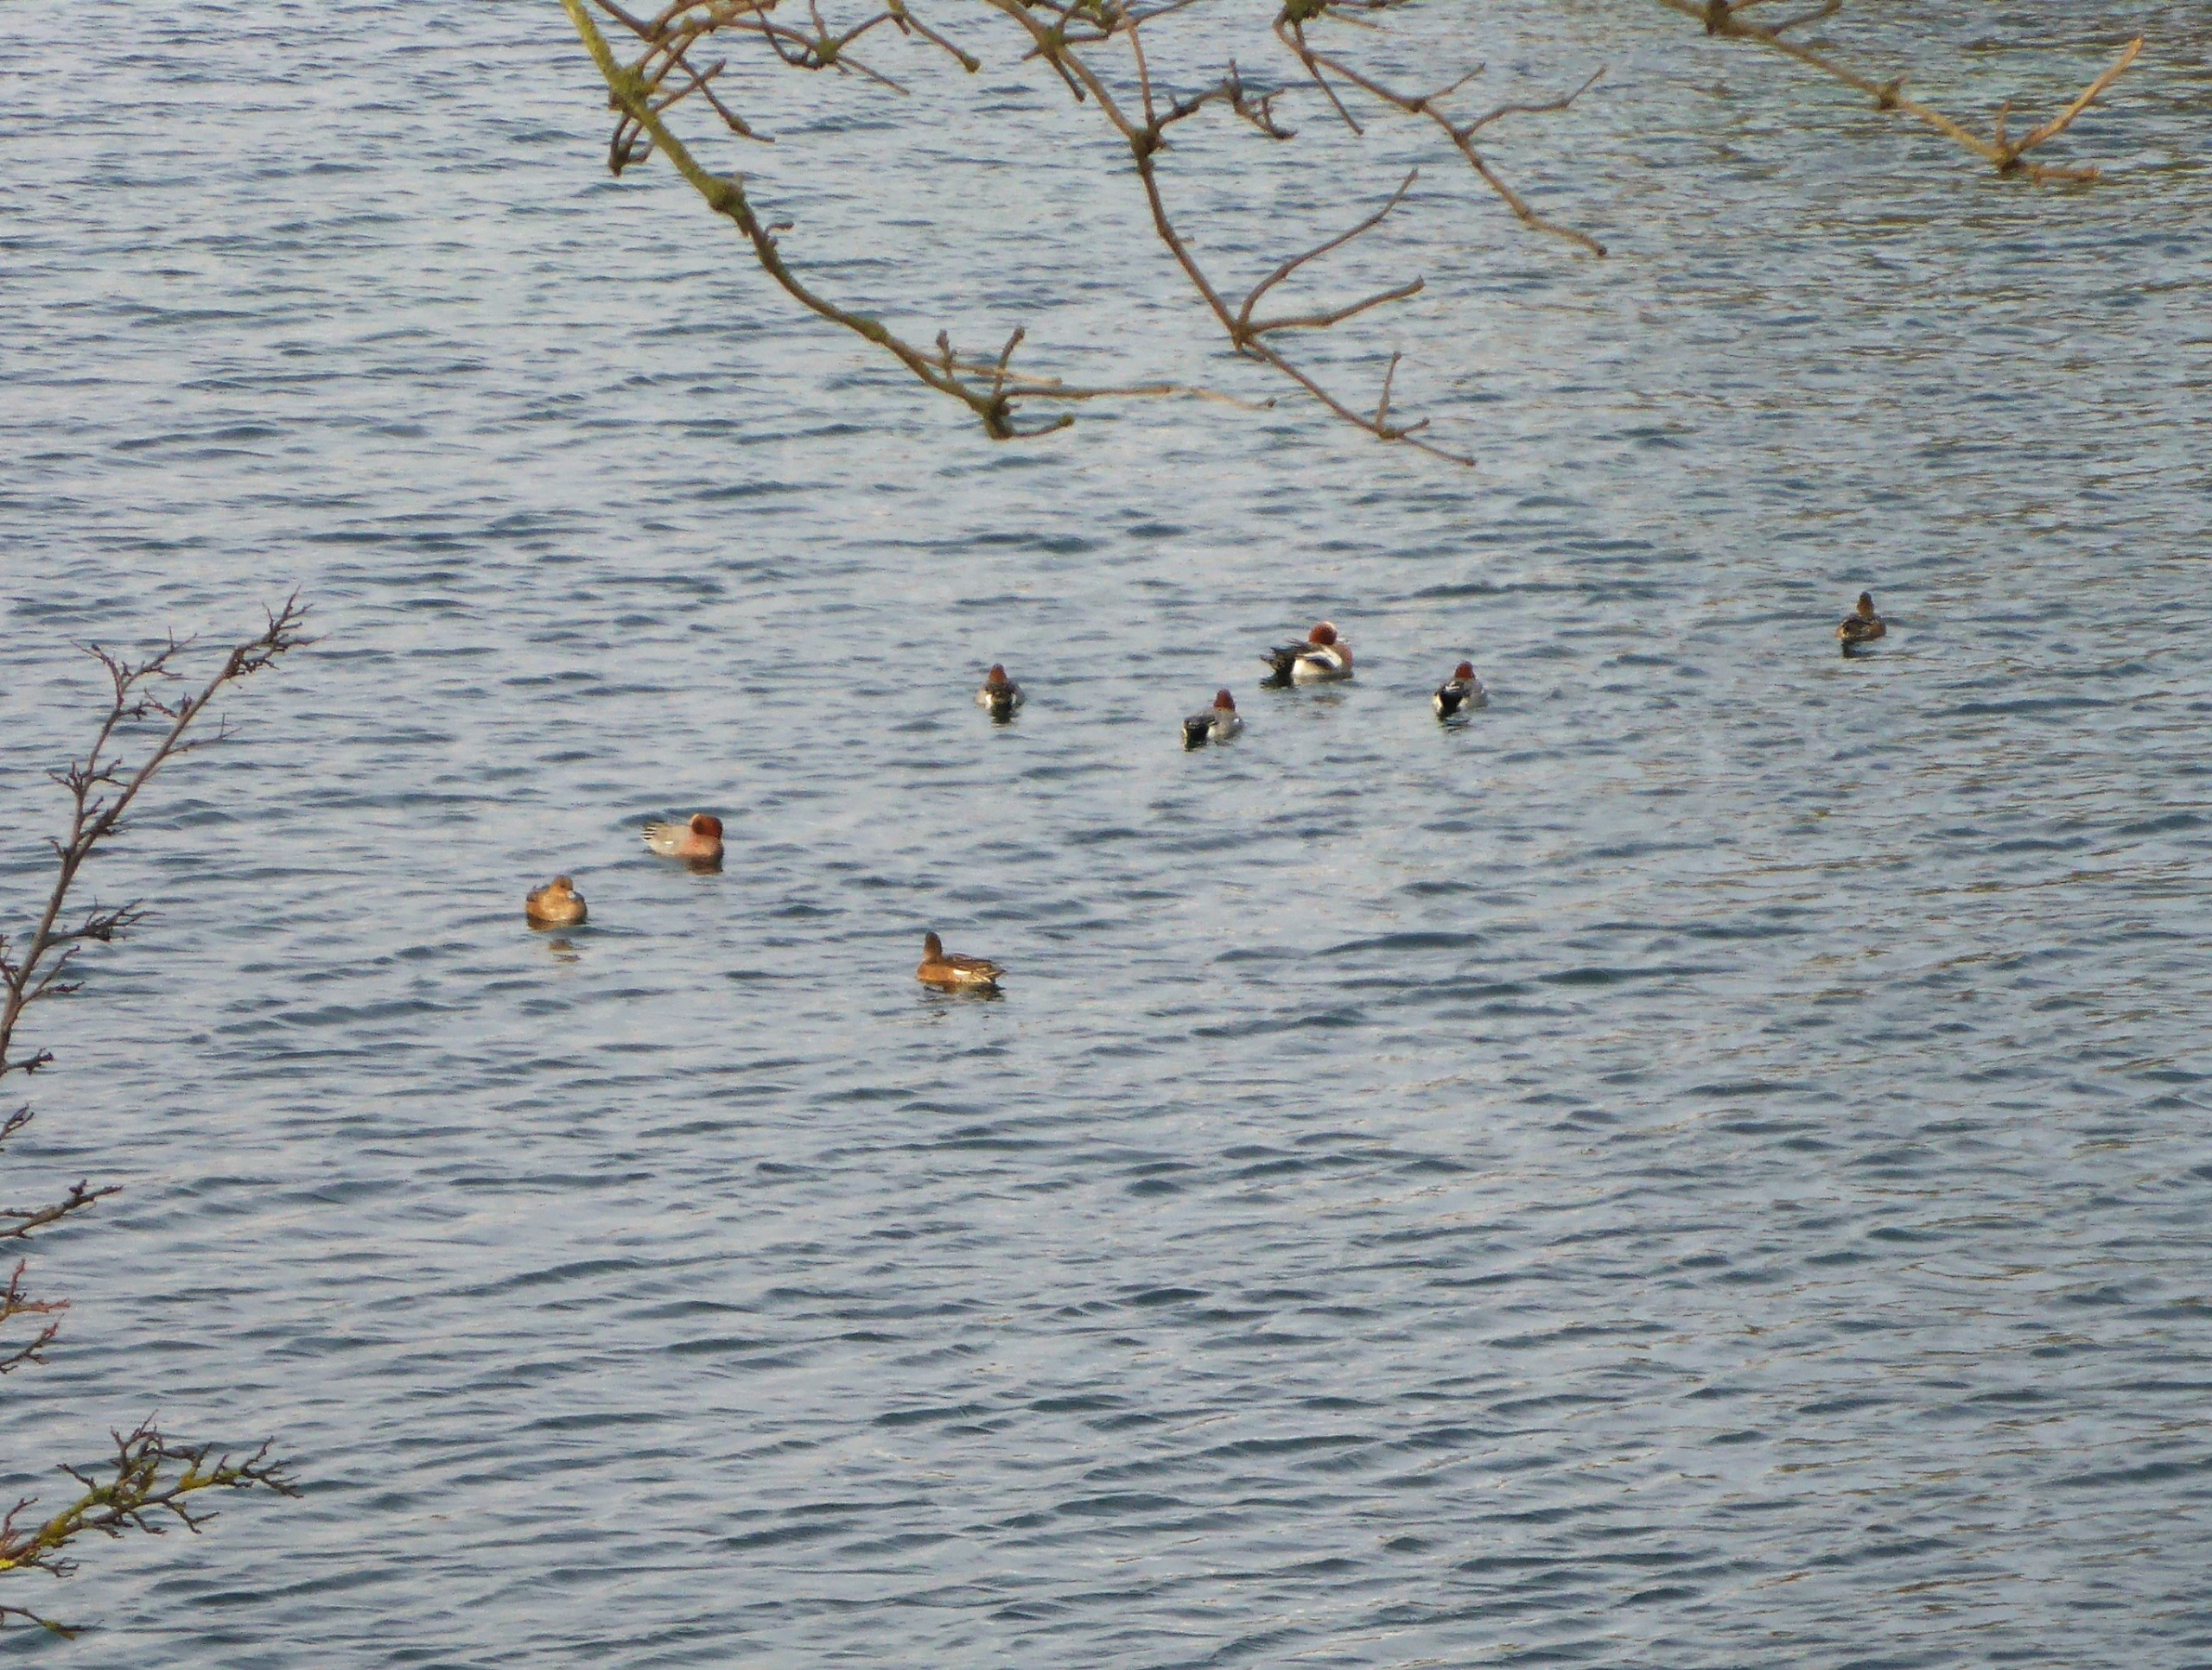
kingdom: Animalia
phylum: Chordata
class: Aves
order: Anseriformes
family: Anatidae
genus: Mareca
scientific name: Mareca penelope
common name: Pibeand
